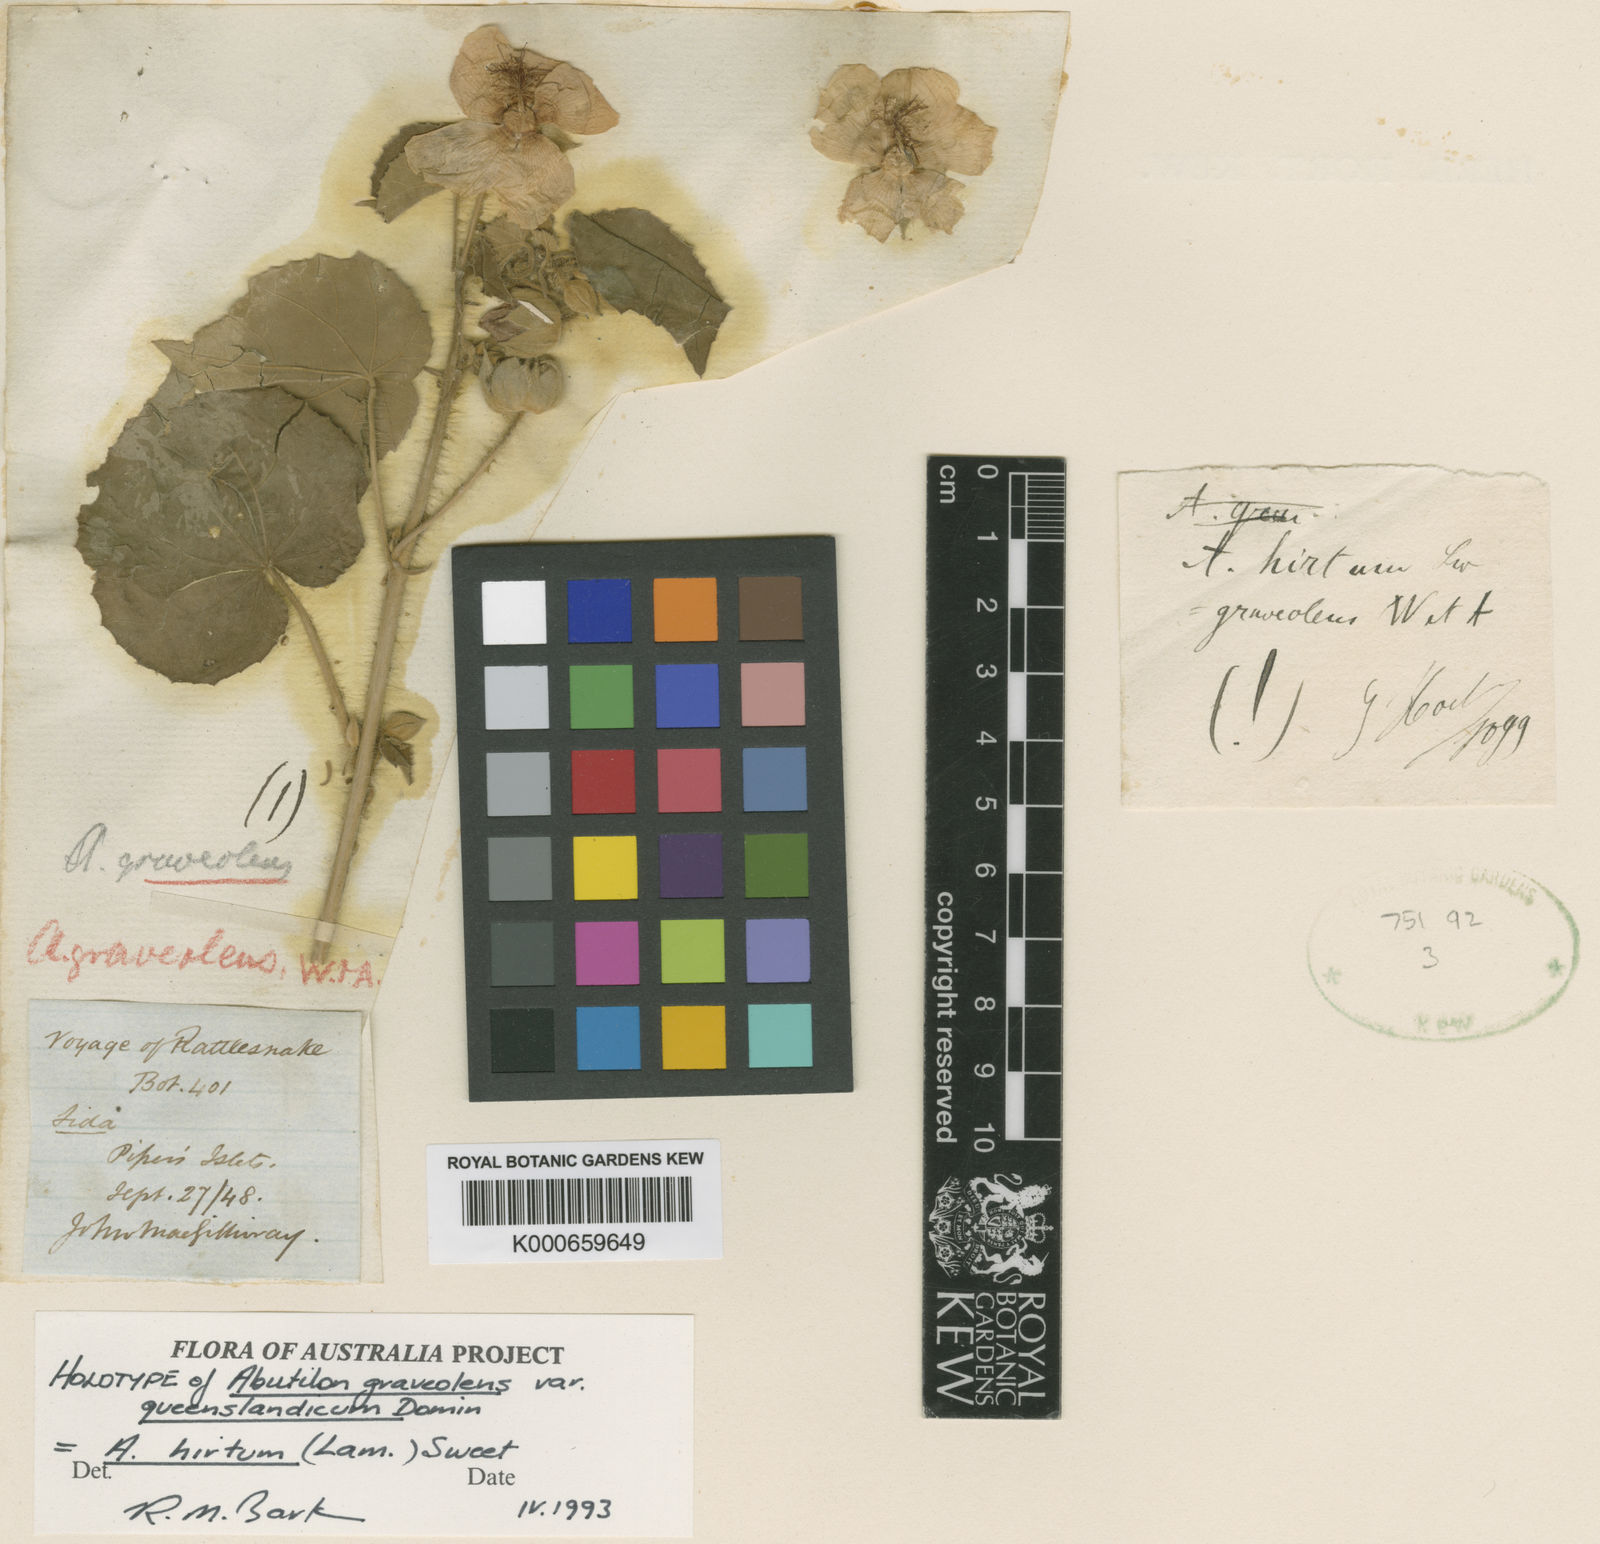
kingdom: Plantae
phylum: Tracheophyta
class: Magnoliopsida
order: Malvales
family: Malvaceae
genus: Abutilon
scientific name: Abutilon hirtum
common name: Florida keys indian mallow
